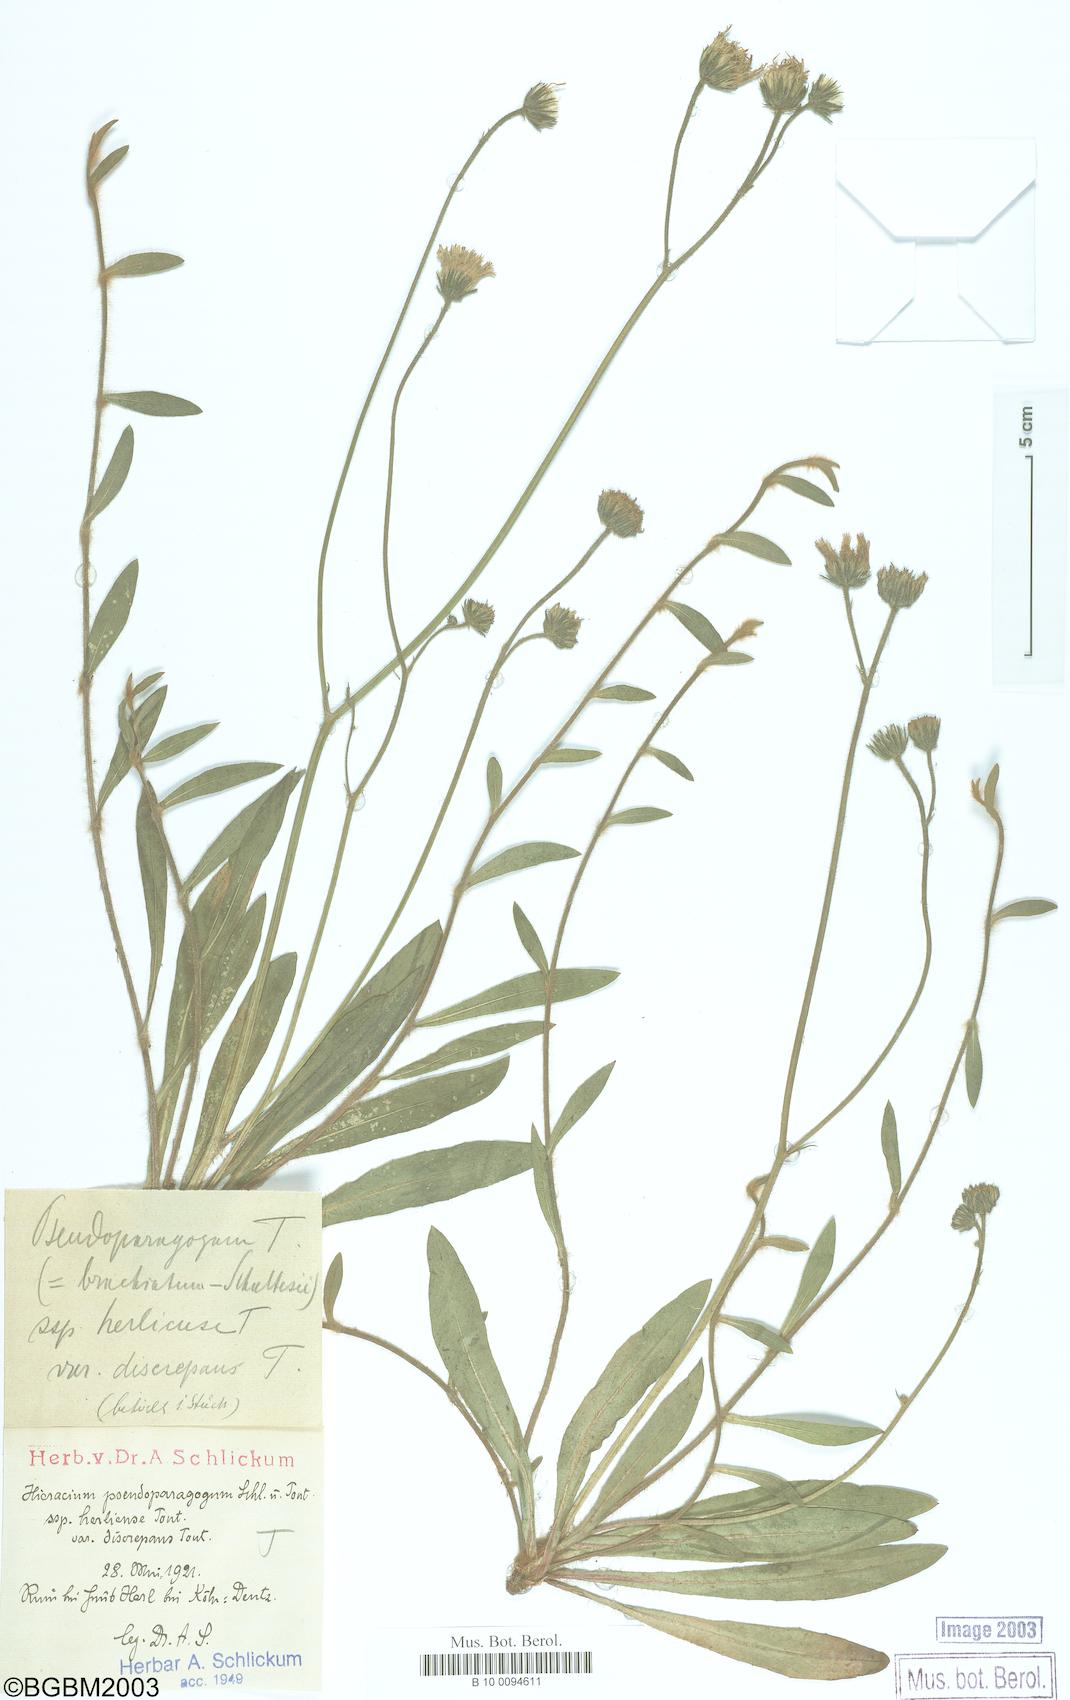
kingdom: Plantae
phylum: Tracheophyta
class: Magnoliopsida
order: Asterales
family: Asteraceae
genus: Pilosella
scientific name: Pilosella pseudoparagoga
